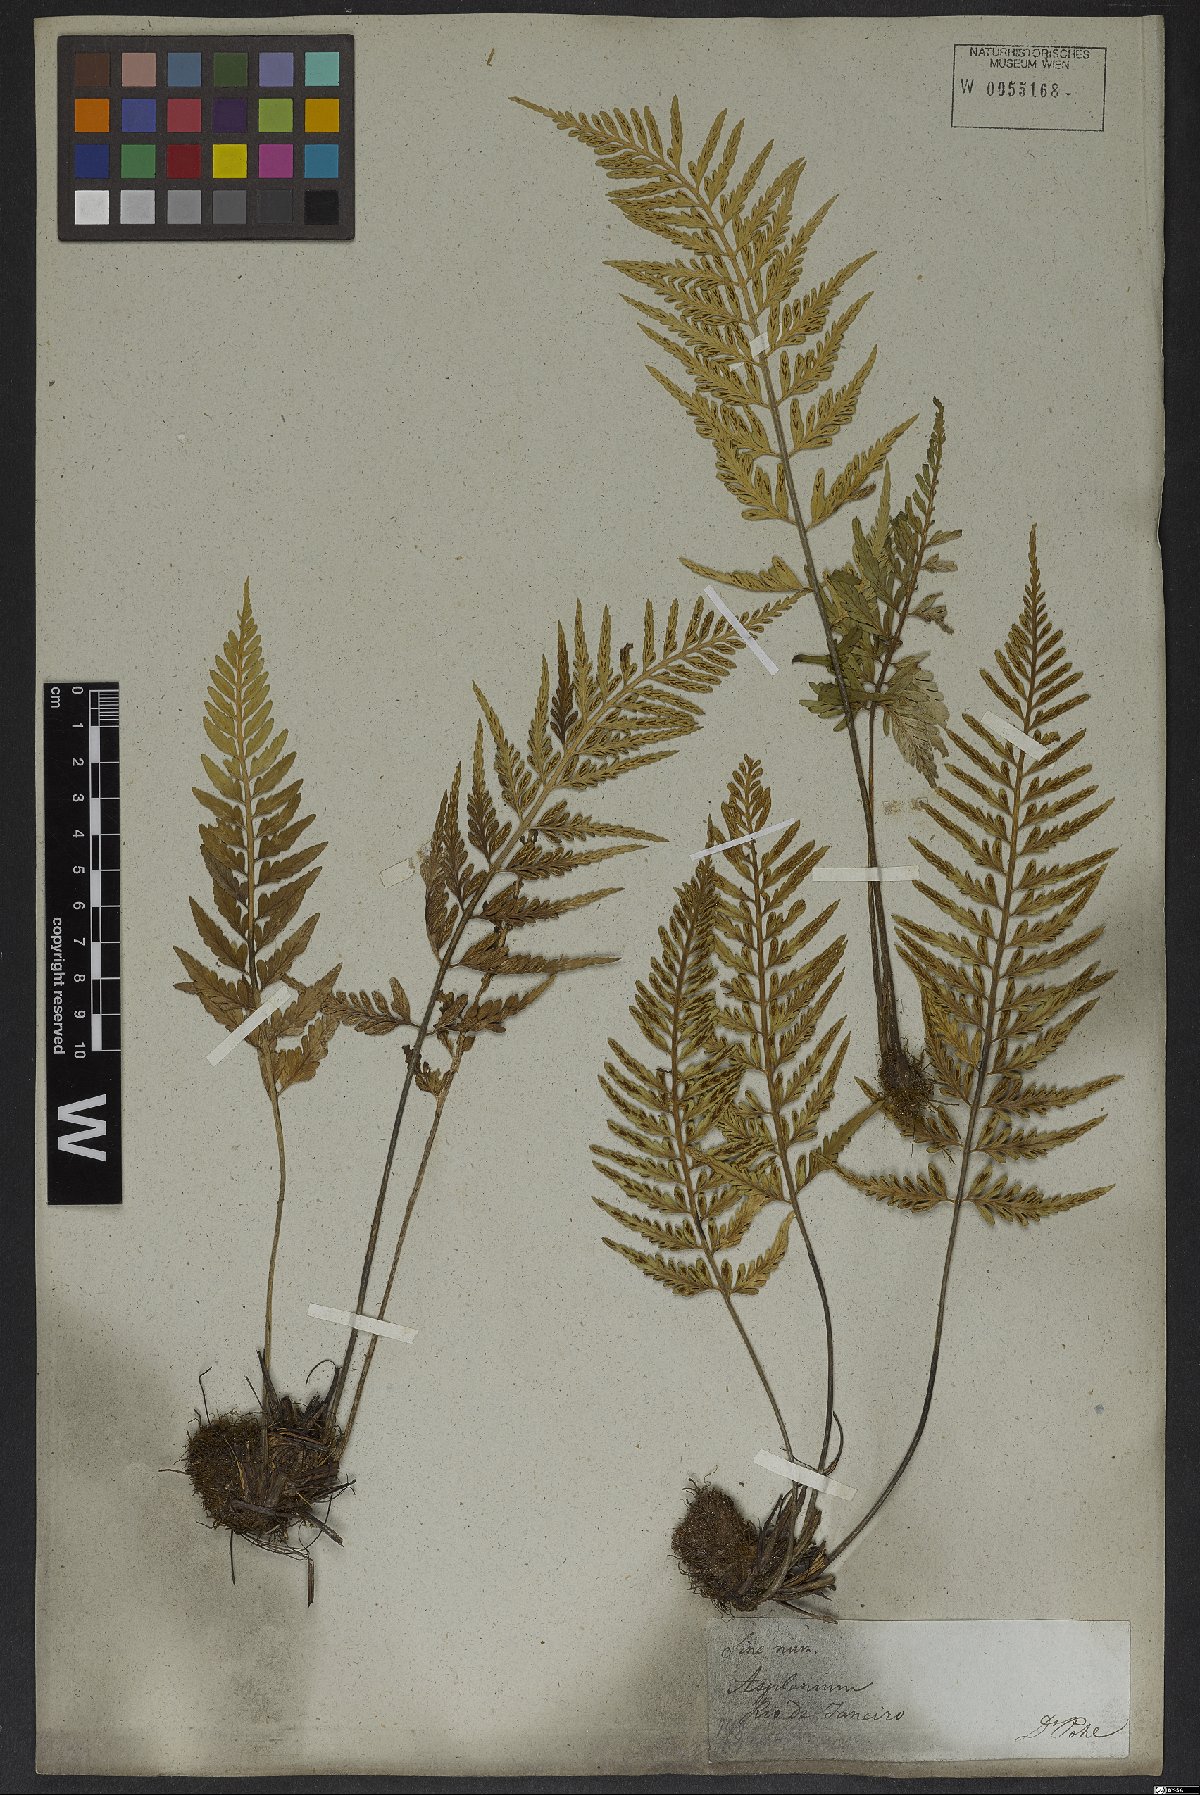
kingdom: Plantae
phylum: Tracheophyta
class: Polypodiopsida
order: Polypodiales
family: Aspleniaceae
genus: Asplenium
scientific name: Asplenium sulcatum
